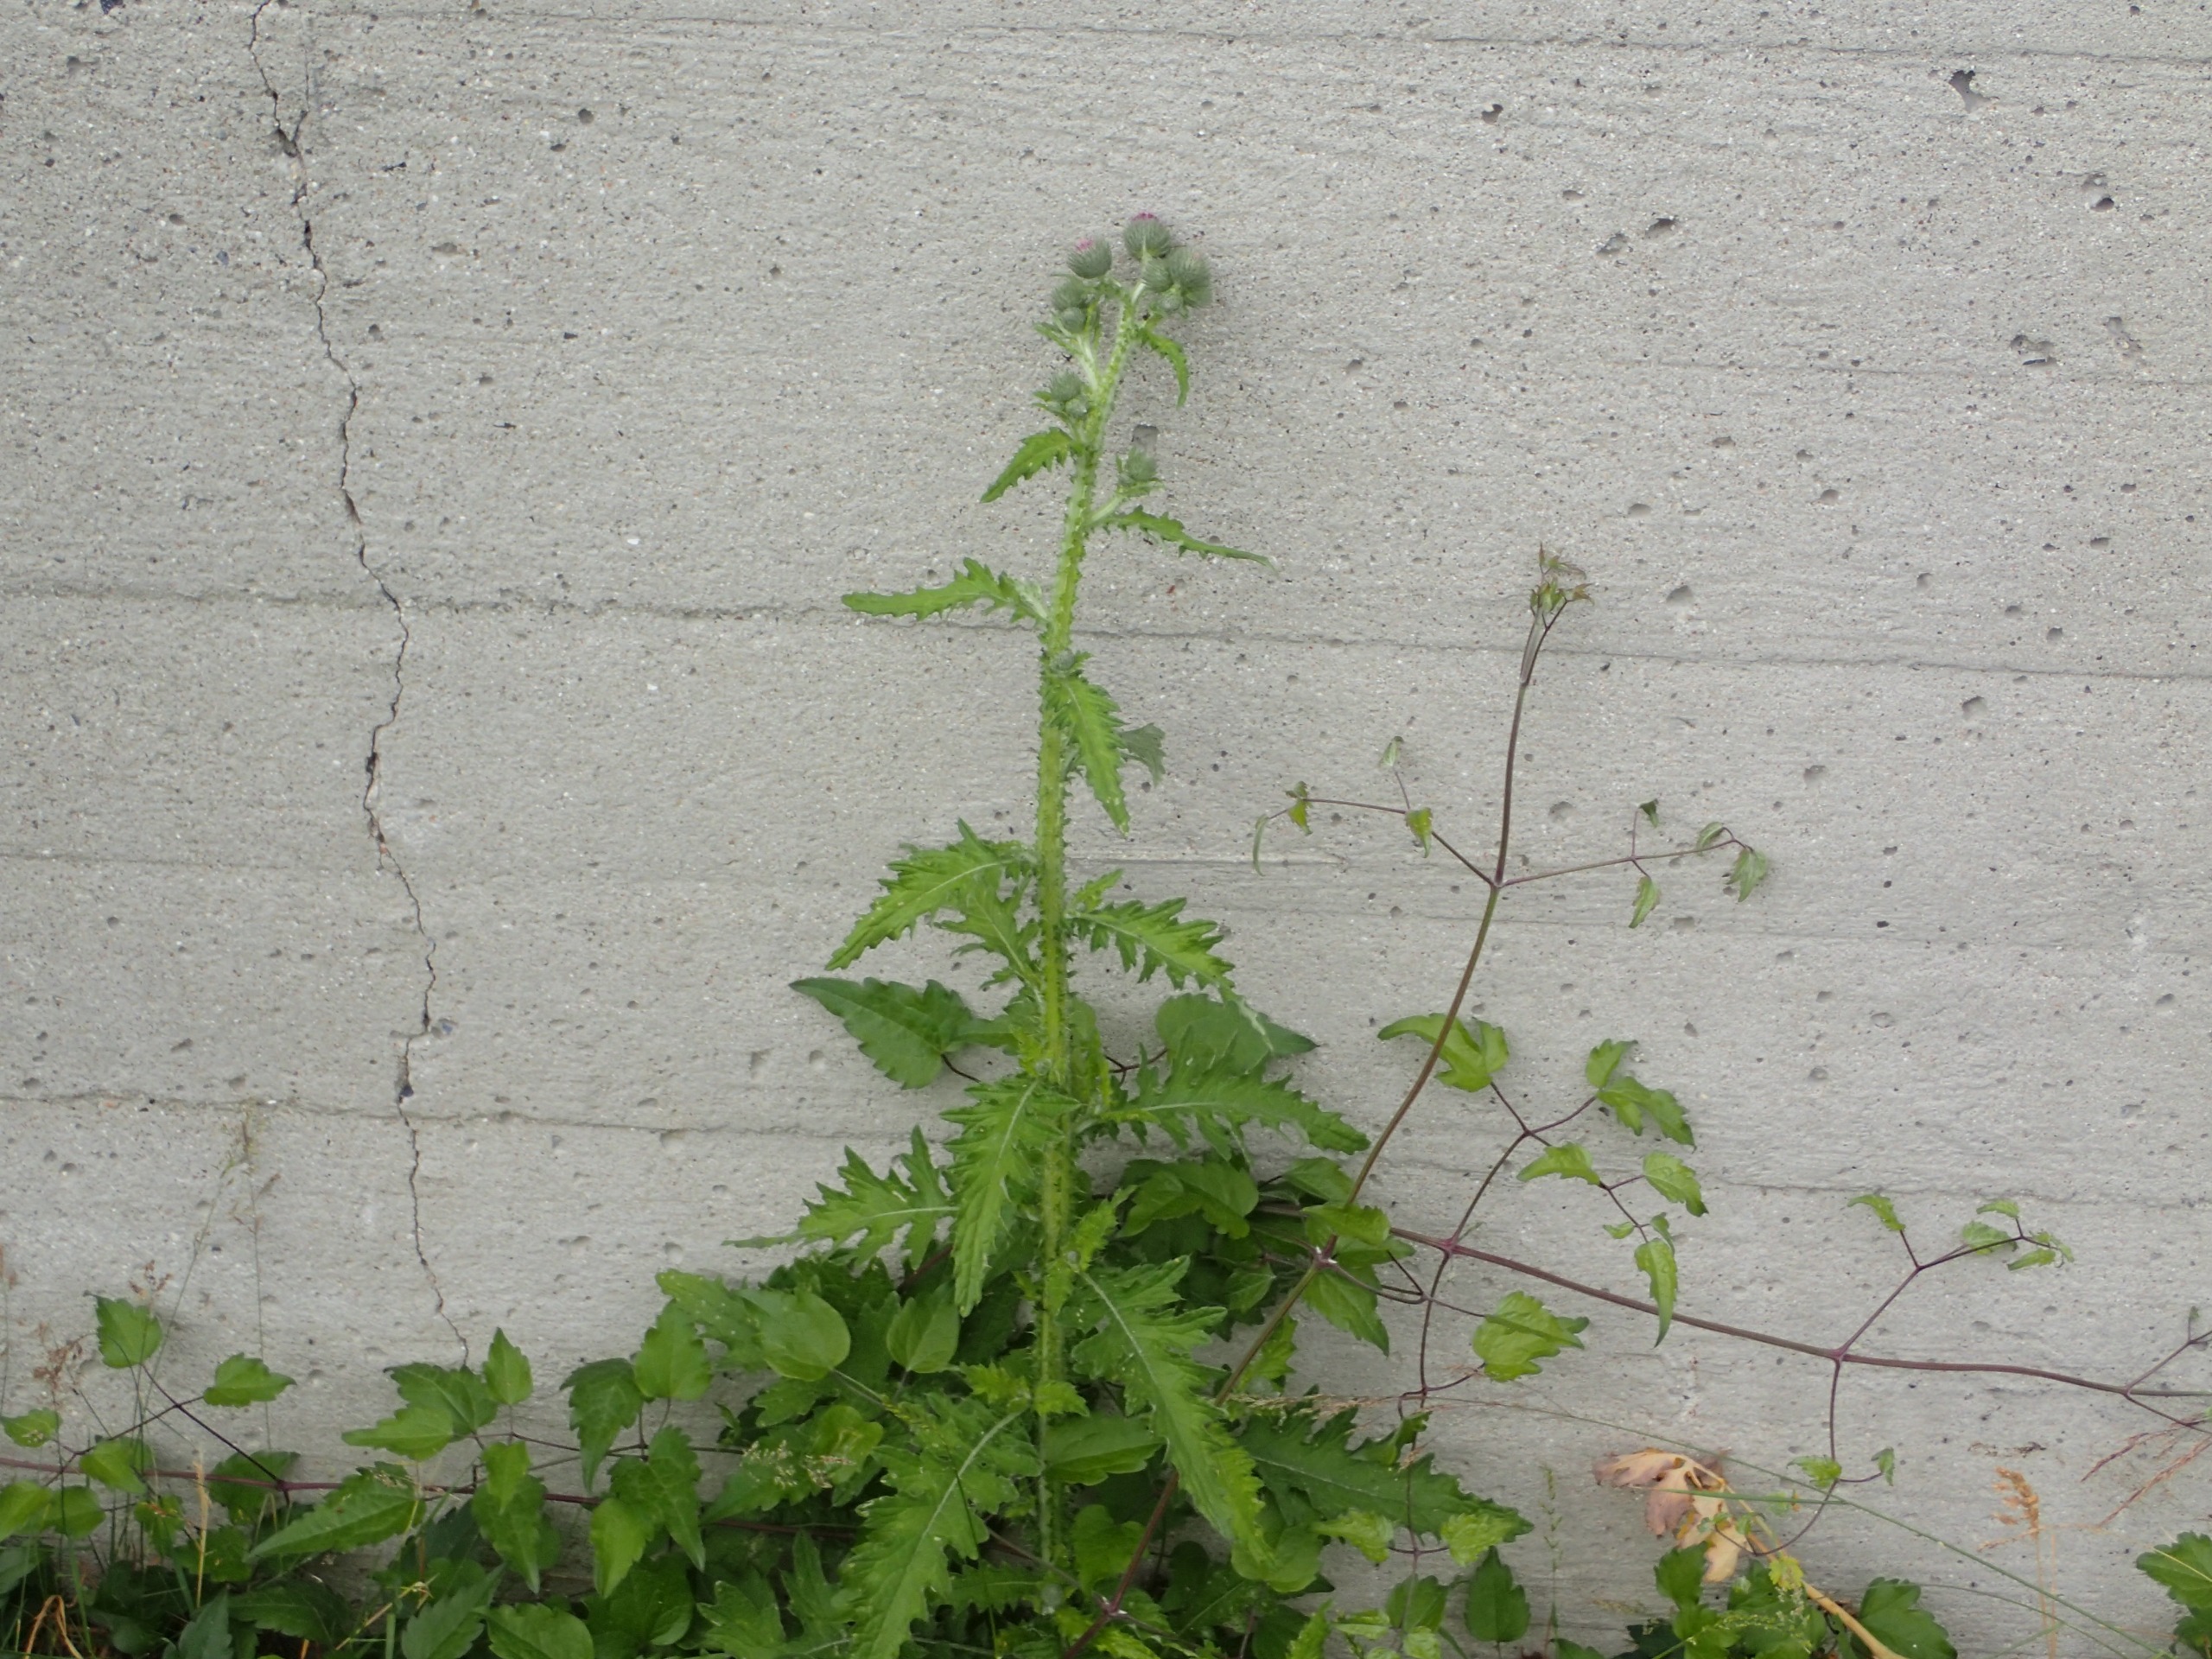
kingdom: Plantae
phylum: Tracheophyta
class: Magnoliopsida
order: Asterales
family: Asteraceae
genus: Carduus
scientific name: Carduus crispus
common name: Kruset tidsel
